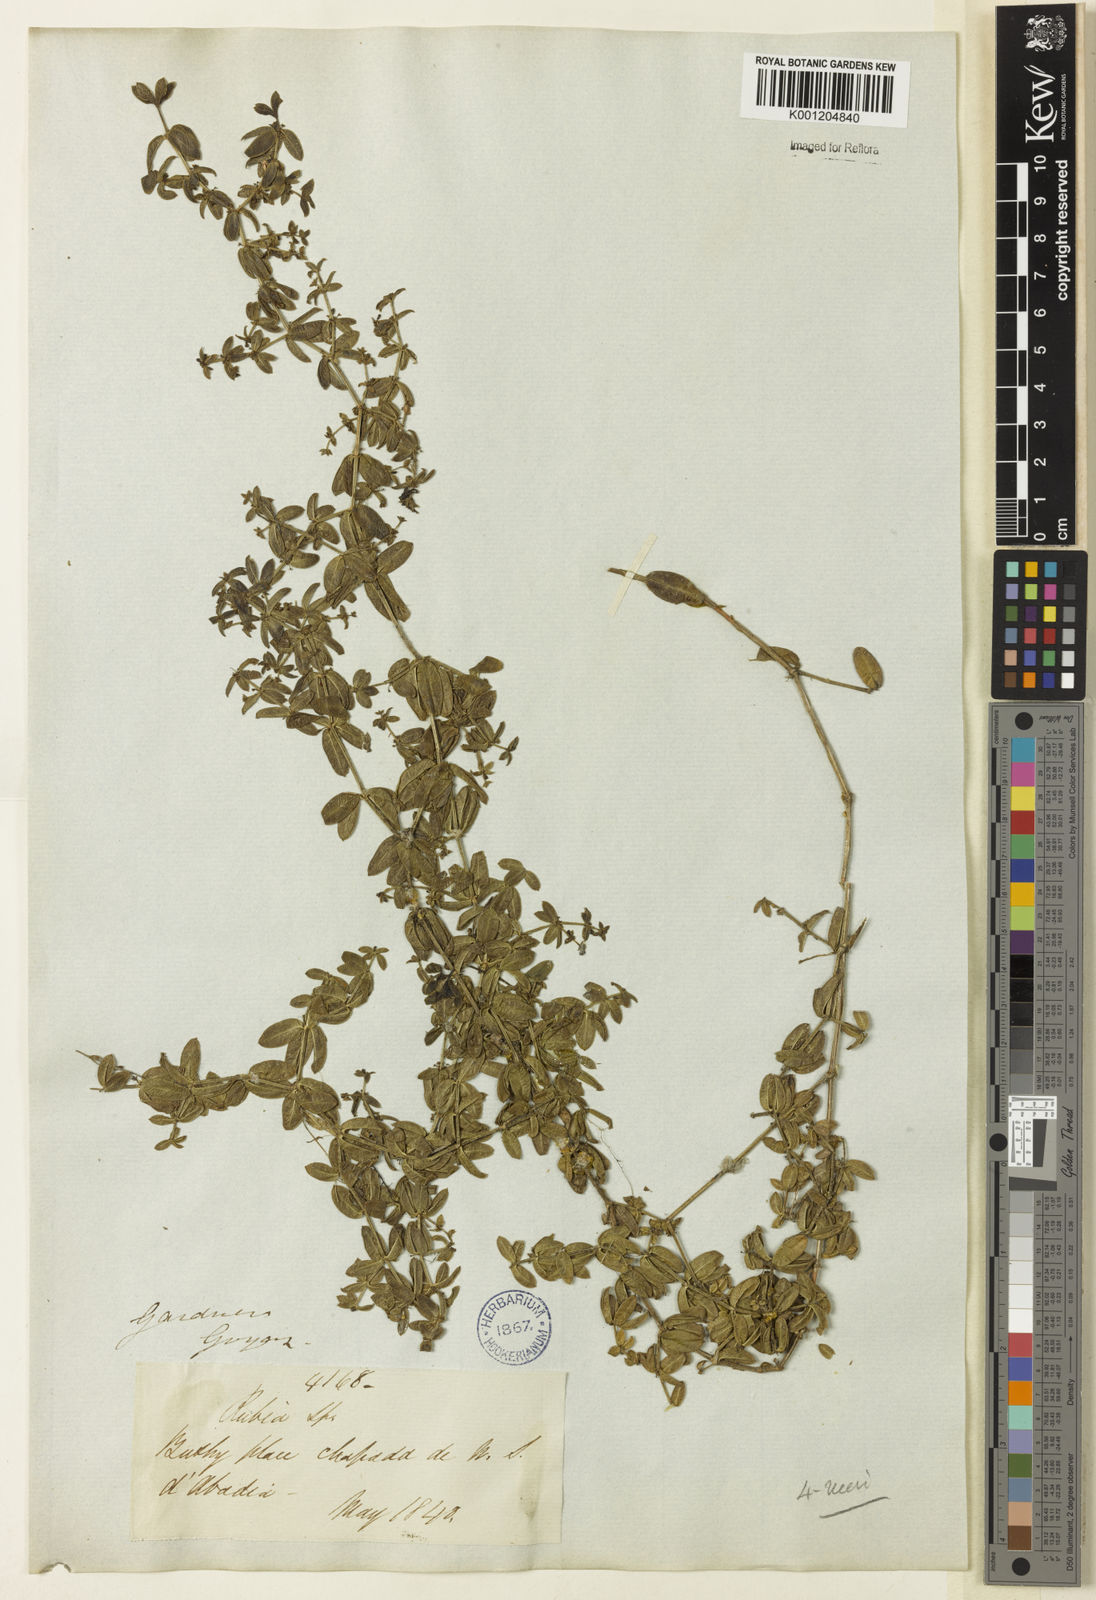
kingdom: Plantae
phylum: Tracheophyta
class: Magnoliopsida
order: Gentianales
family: Rubiaceae
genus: Galium
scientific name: Galium hypocarpium
